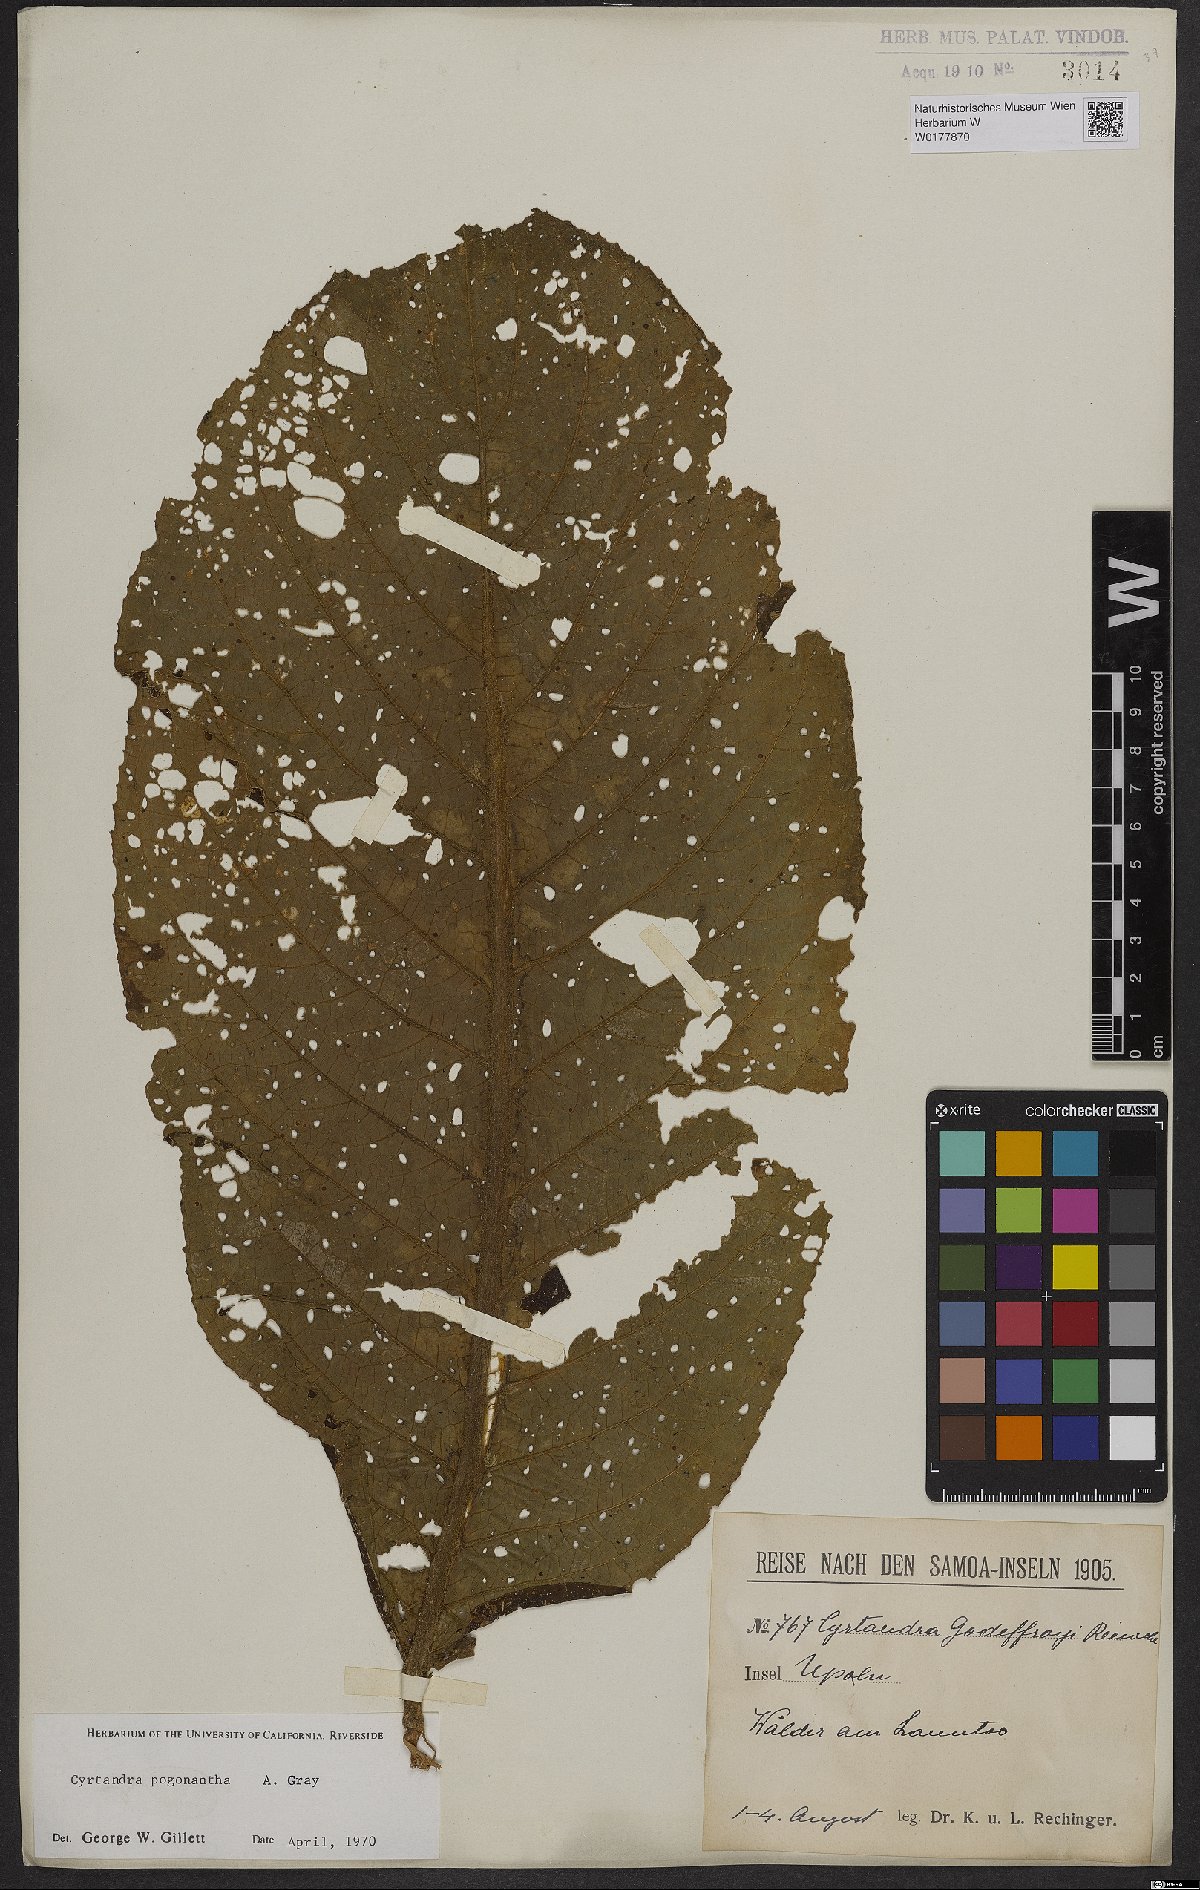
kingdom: Plantae
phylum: Tracheophyta
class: Magnoliopsida
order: Lamiales
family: Gesneriaceae
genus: Cyrtandra
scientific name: Cyrtandra pogonantha
